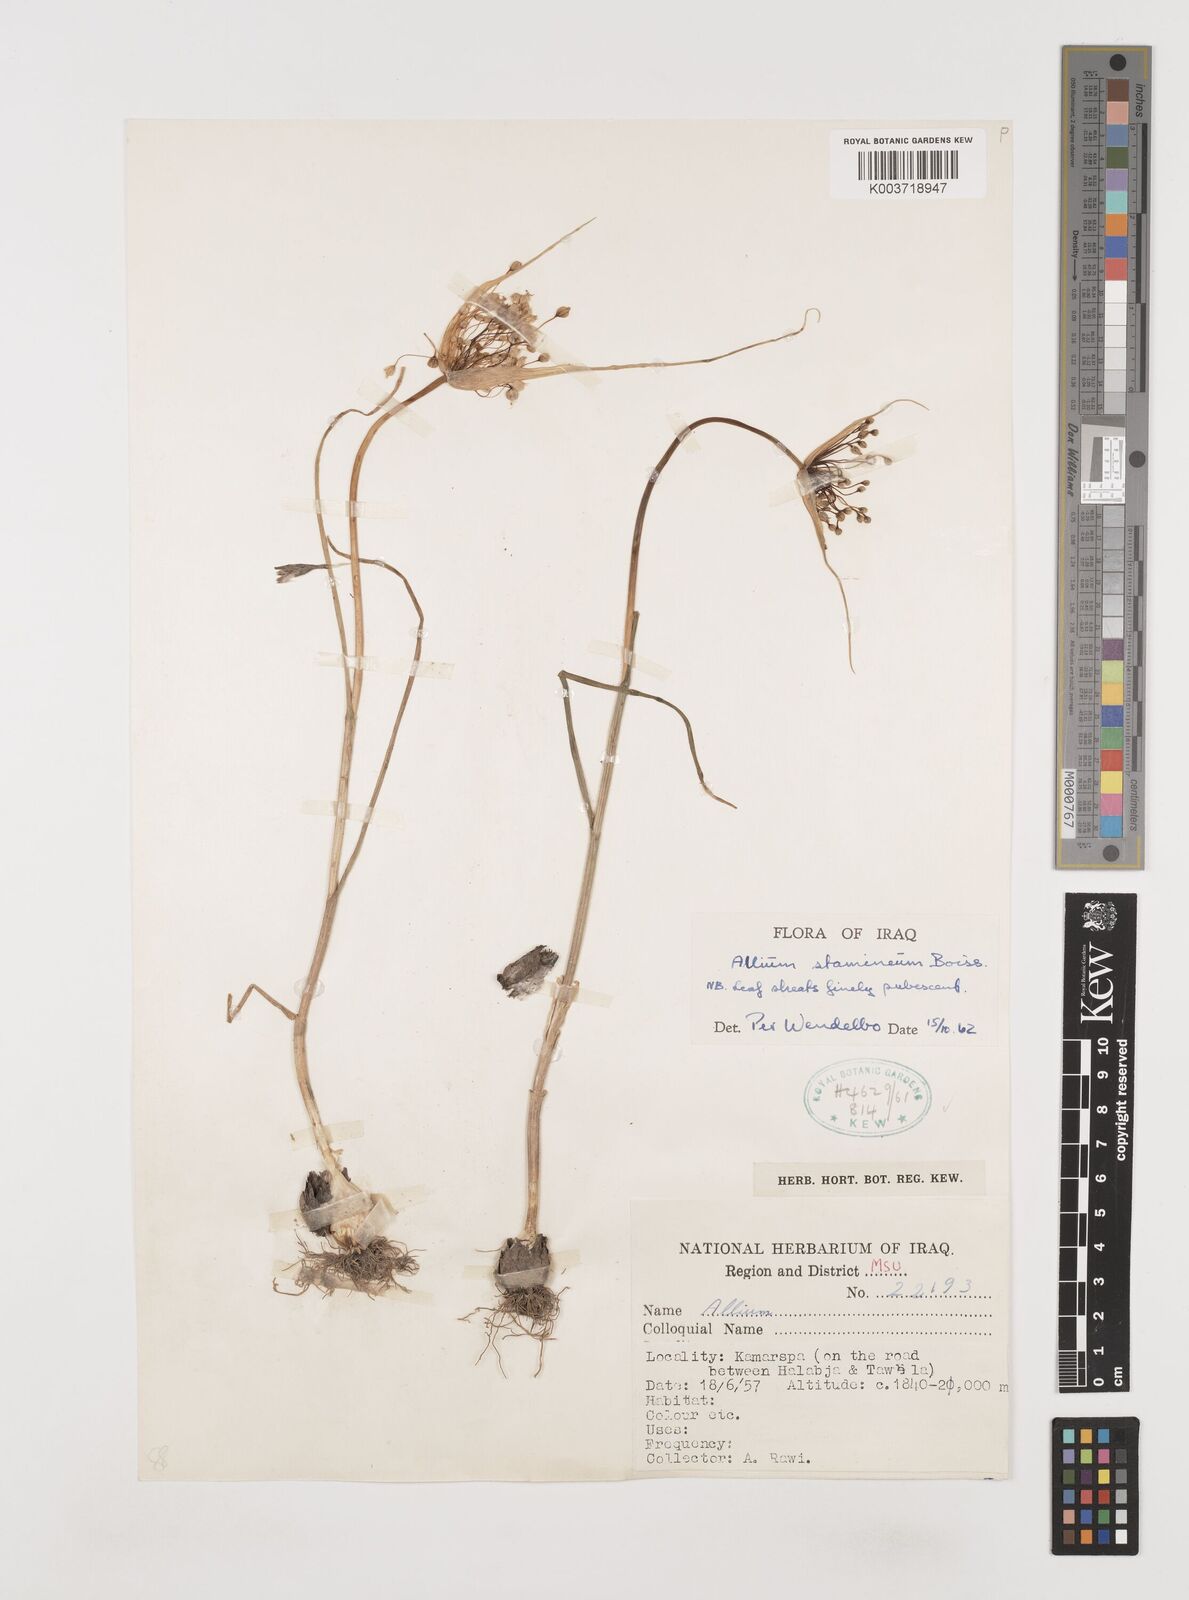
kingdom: Plantae
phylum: Tracheophyta
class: Liliopsida
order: Asparagales
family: Amaryllidaceae
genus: Allium
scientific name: Allium stamineum
